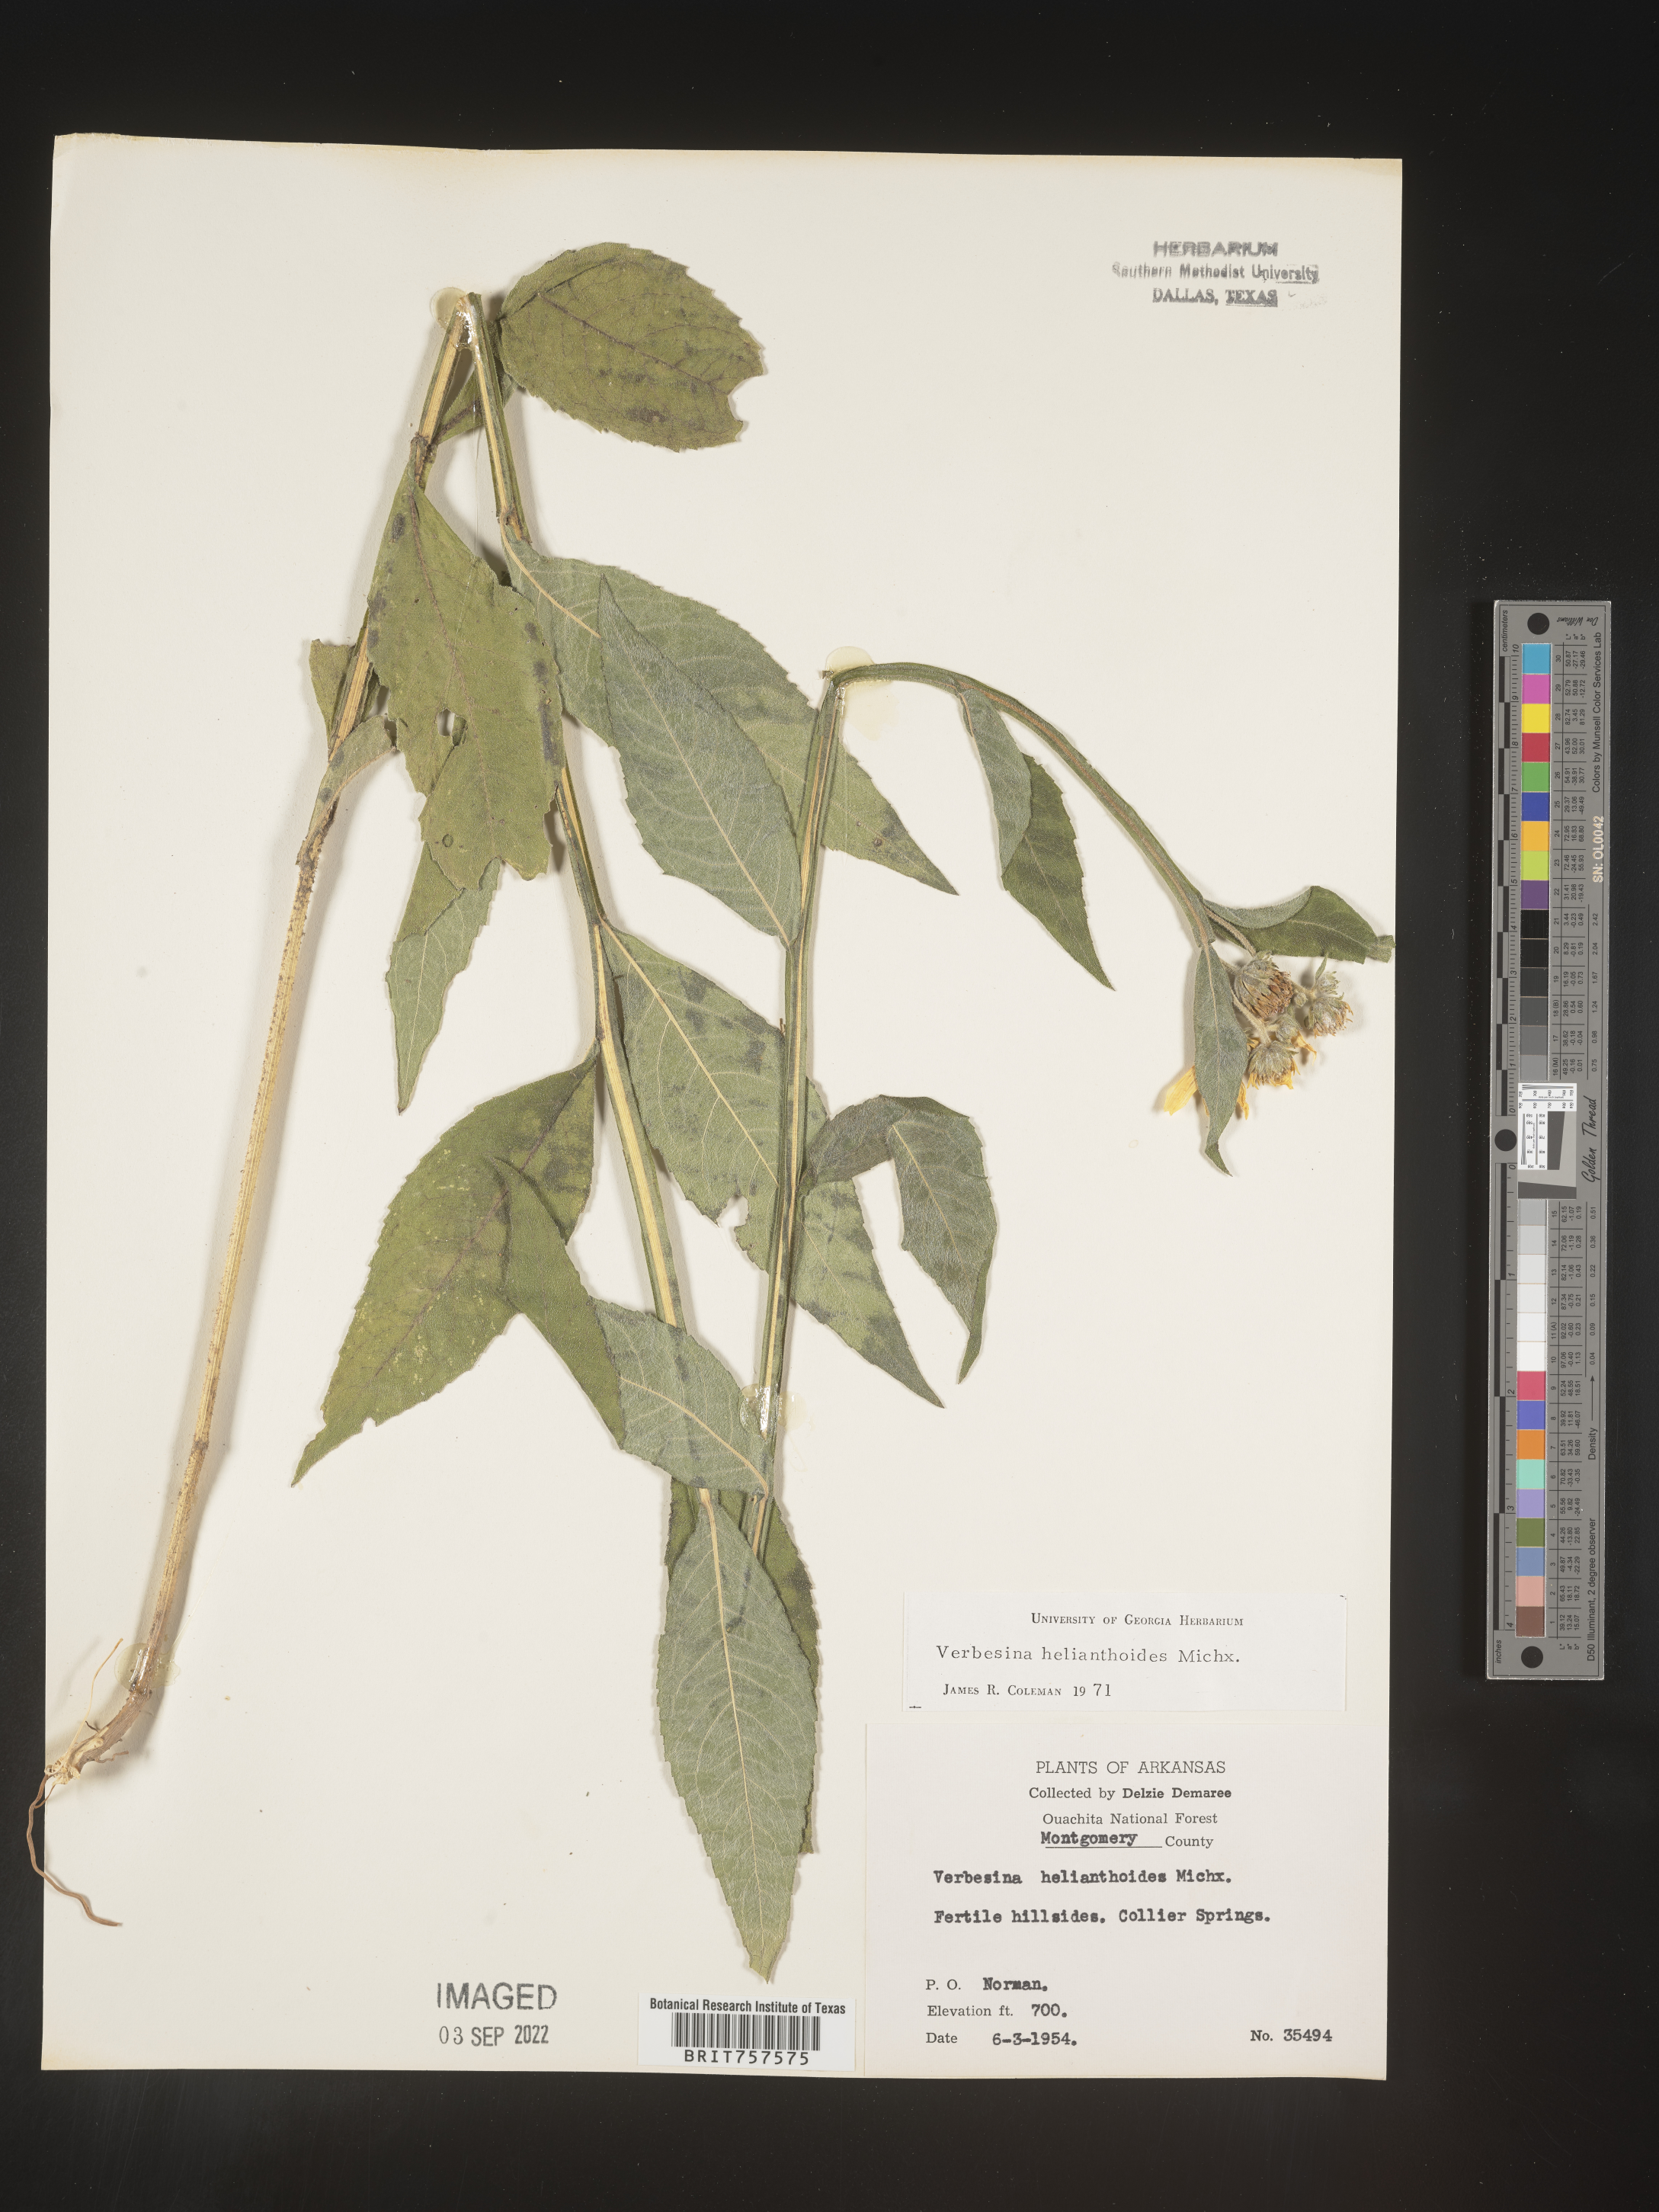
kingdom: Plantae
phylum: Tracheophyta
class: Magnoliopsida
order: Asterales
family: Asteraceae
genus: Verbesina
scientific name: Verbesina helianthoides
